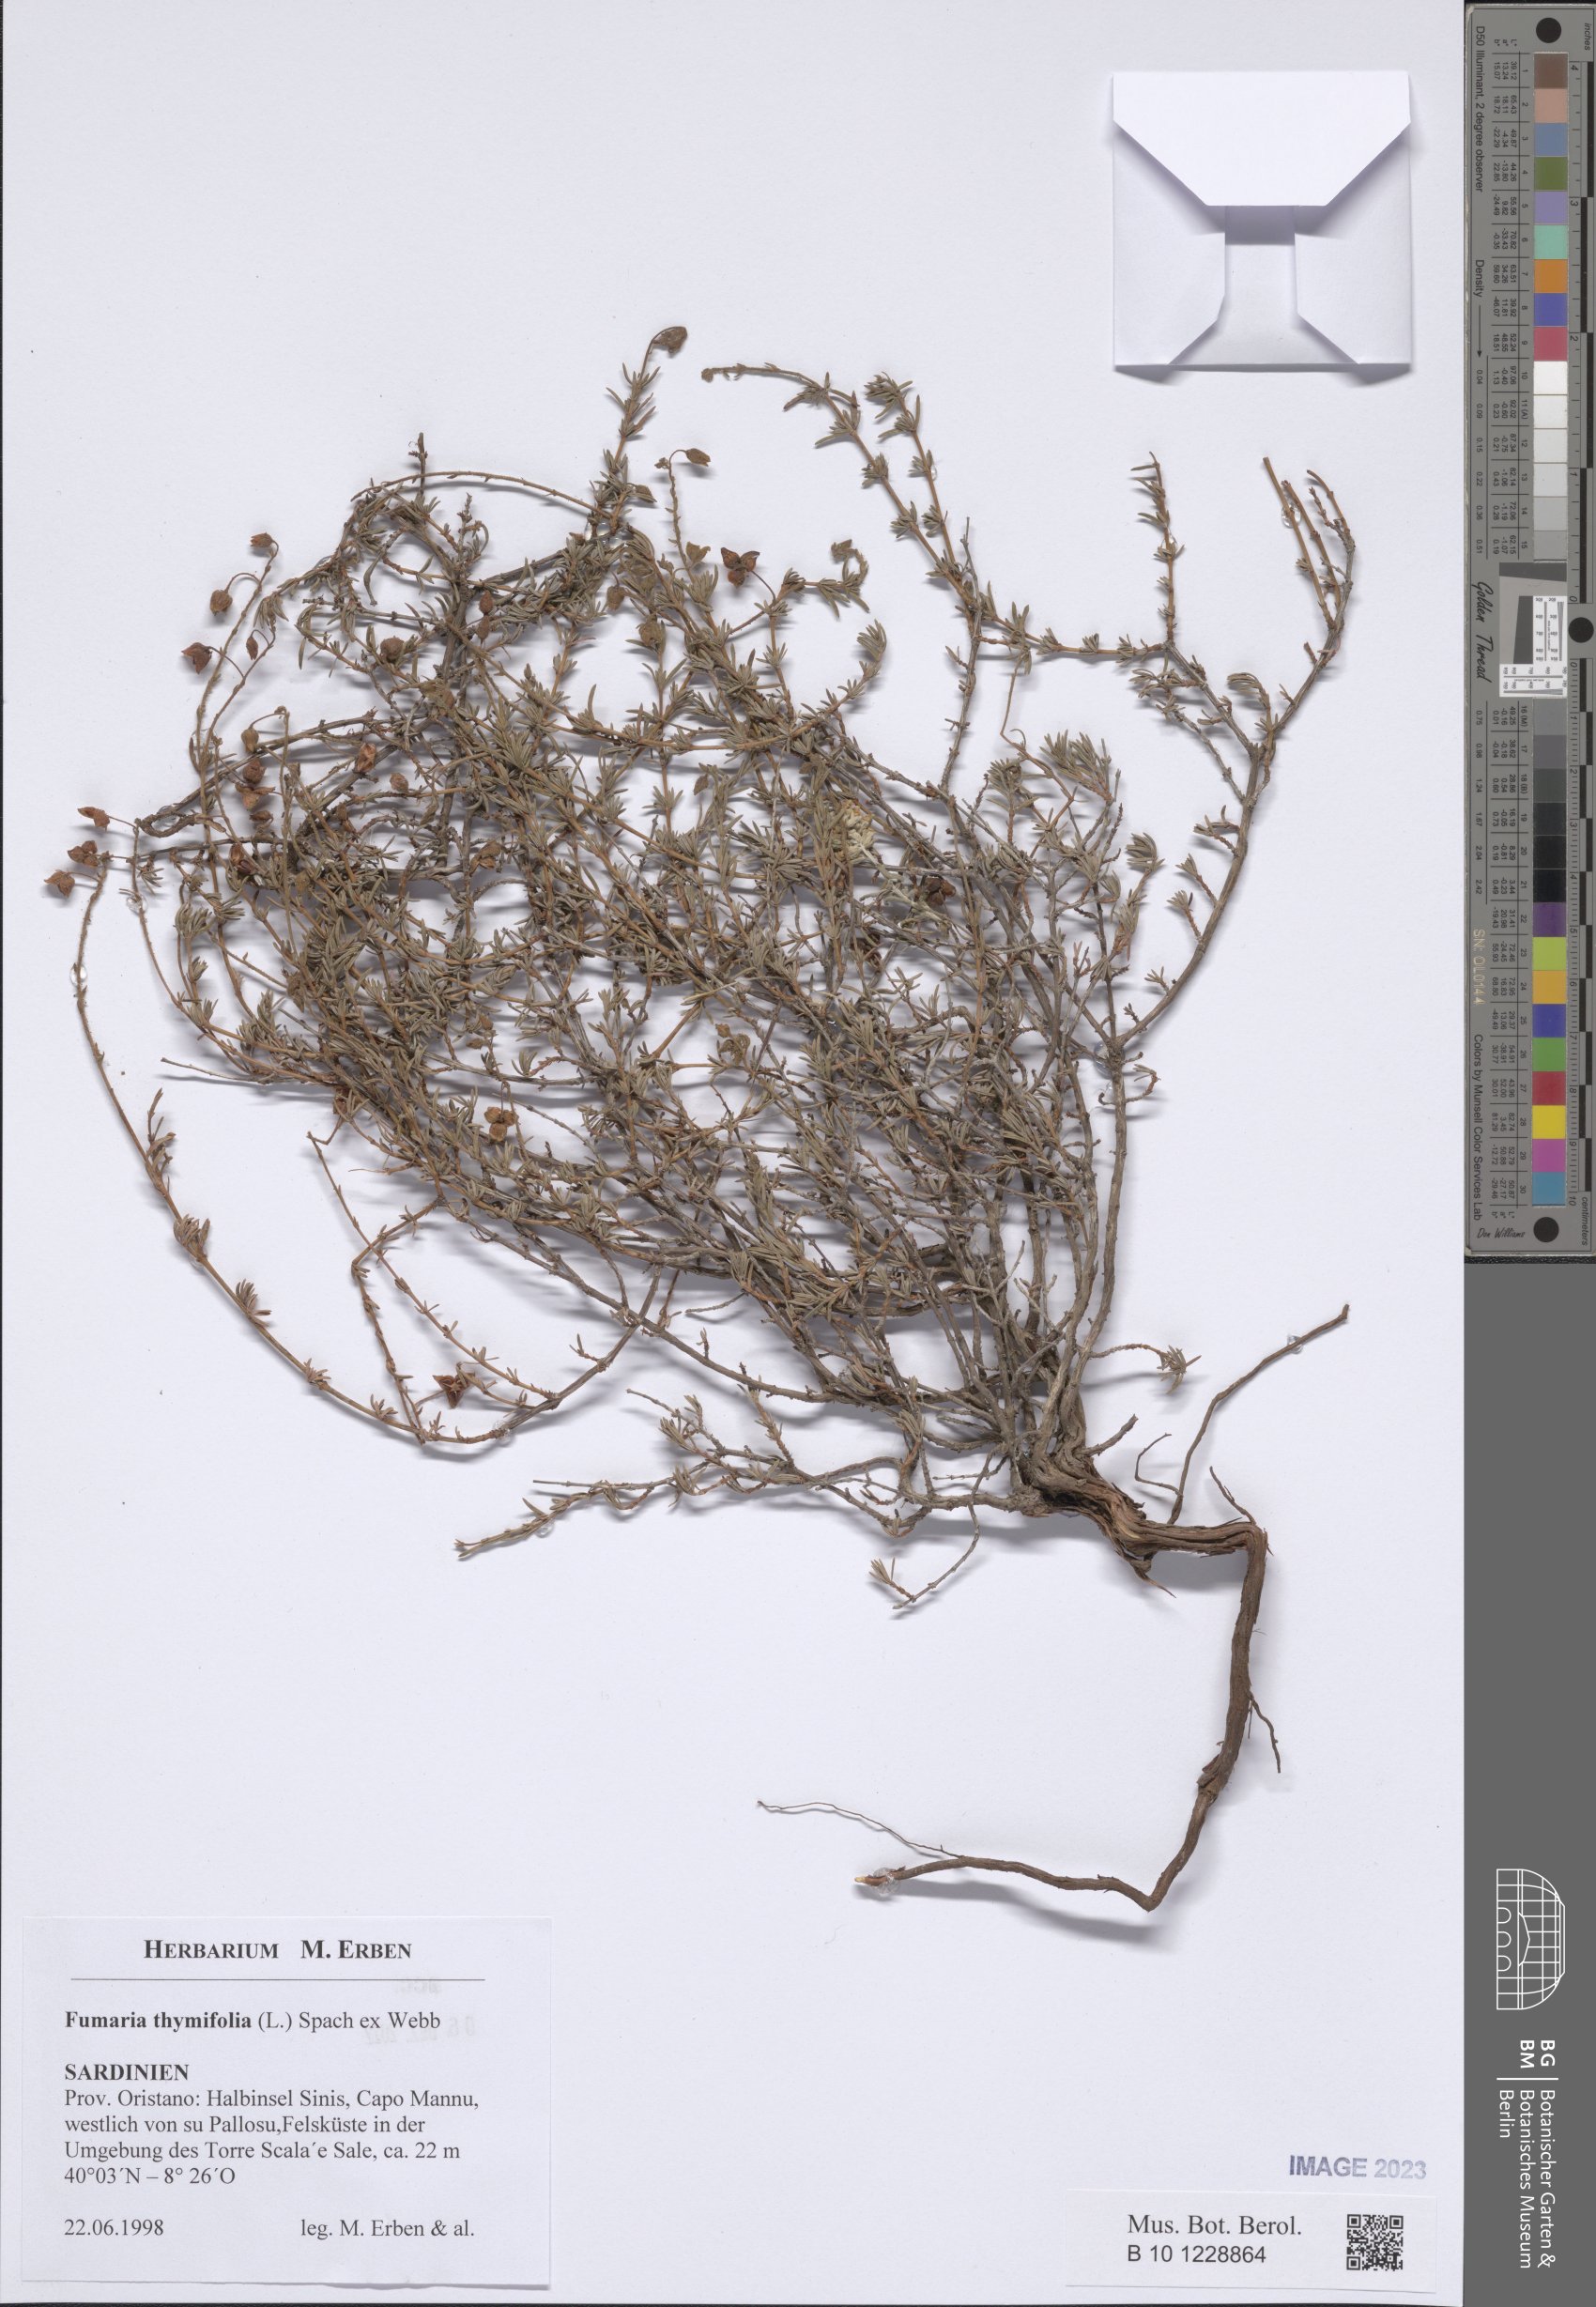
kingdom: Plantae
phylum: Tracheophyta
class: Magnoliopsida
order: Malvales
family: Cistaceae
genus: Fumana
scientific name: Fumana thymifolia
